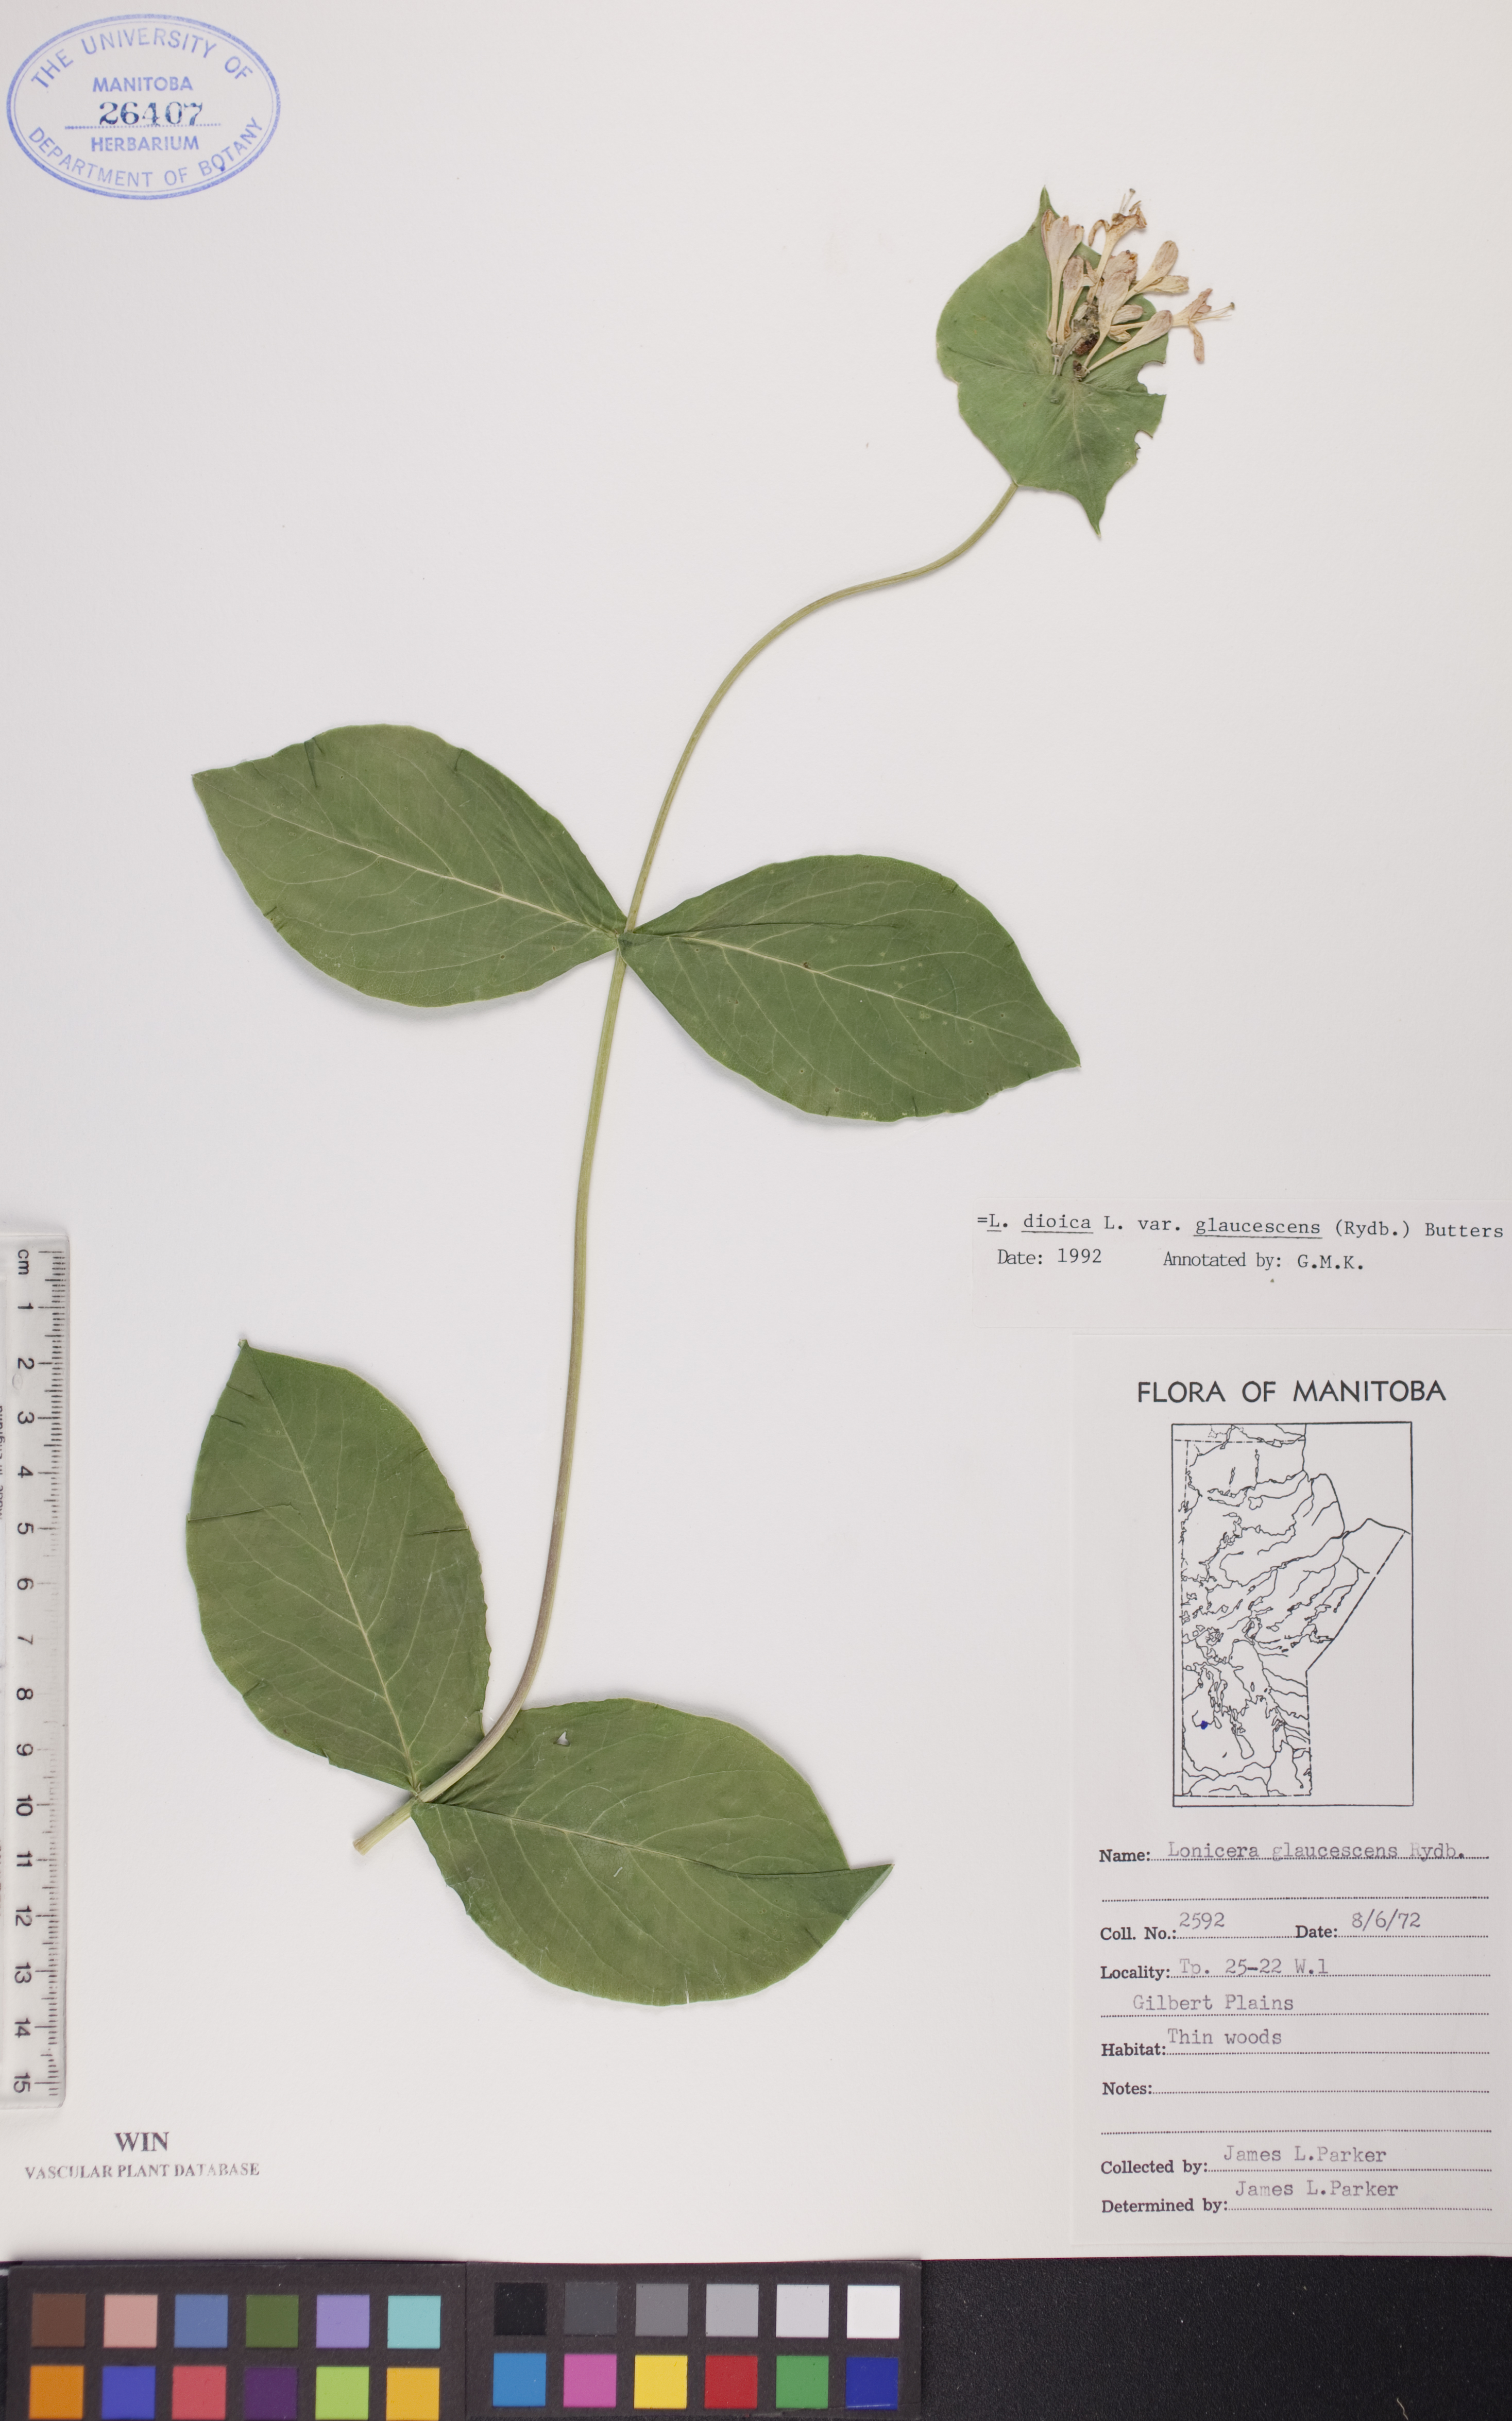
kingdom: Plantae
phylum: Tracheophyta
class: Magnoliopsida
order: Dipsacales
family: Caprifoliaceae
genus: Lonicera
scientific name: Lonicera dioica
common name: Limber honeysuckle
